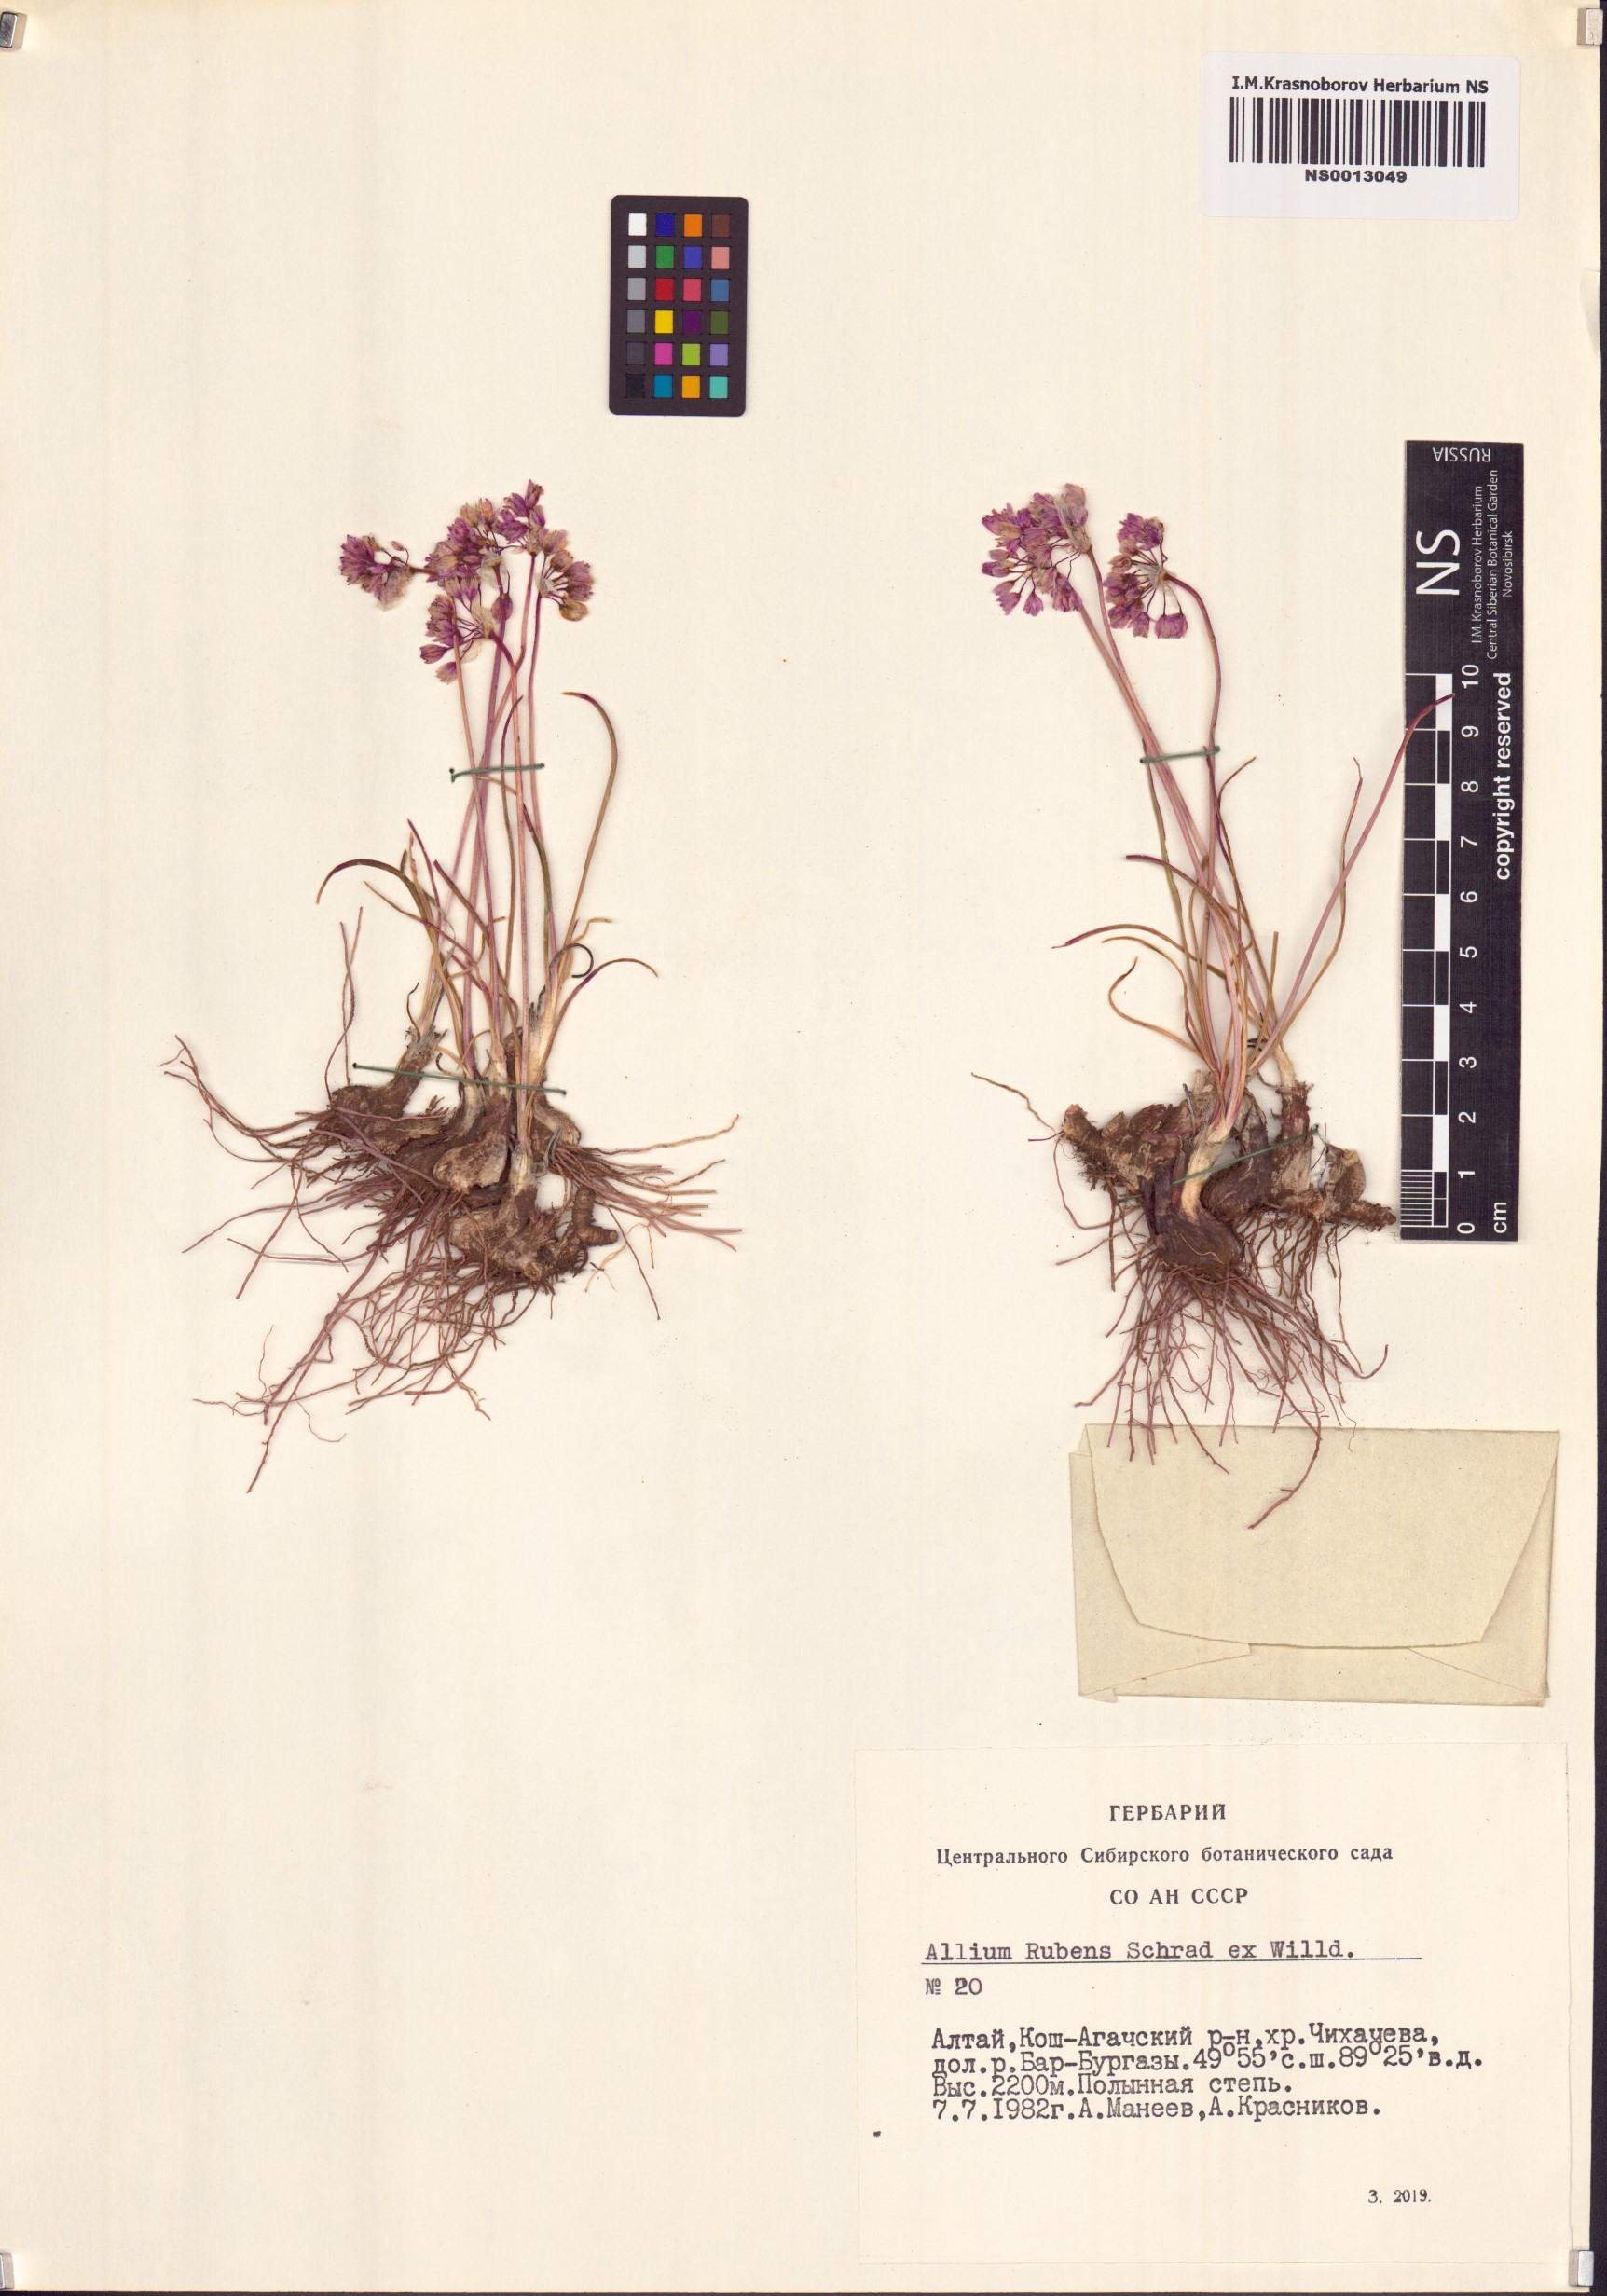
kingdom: Plantae
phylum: Tracheophyta
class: Liliopsida
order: Asparagales
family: Amaryllidaceae
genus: Allium
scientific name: Allium rubens
